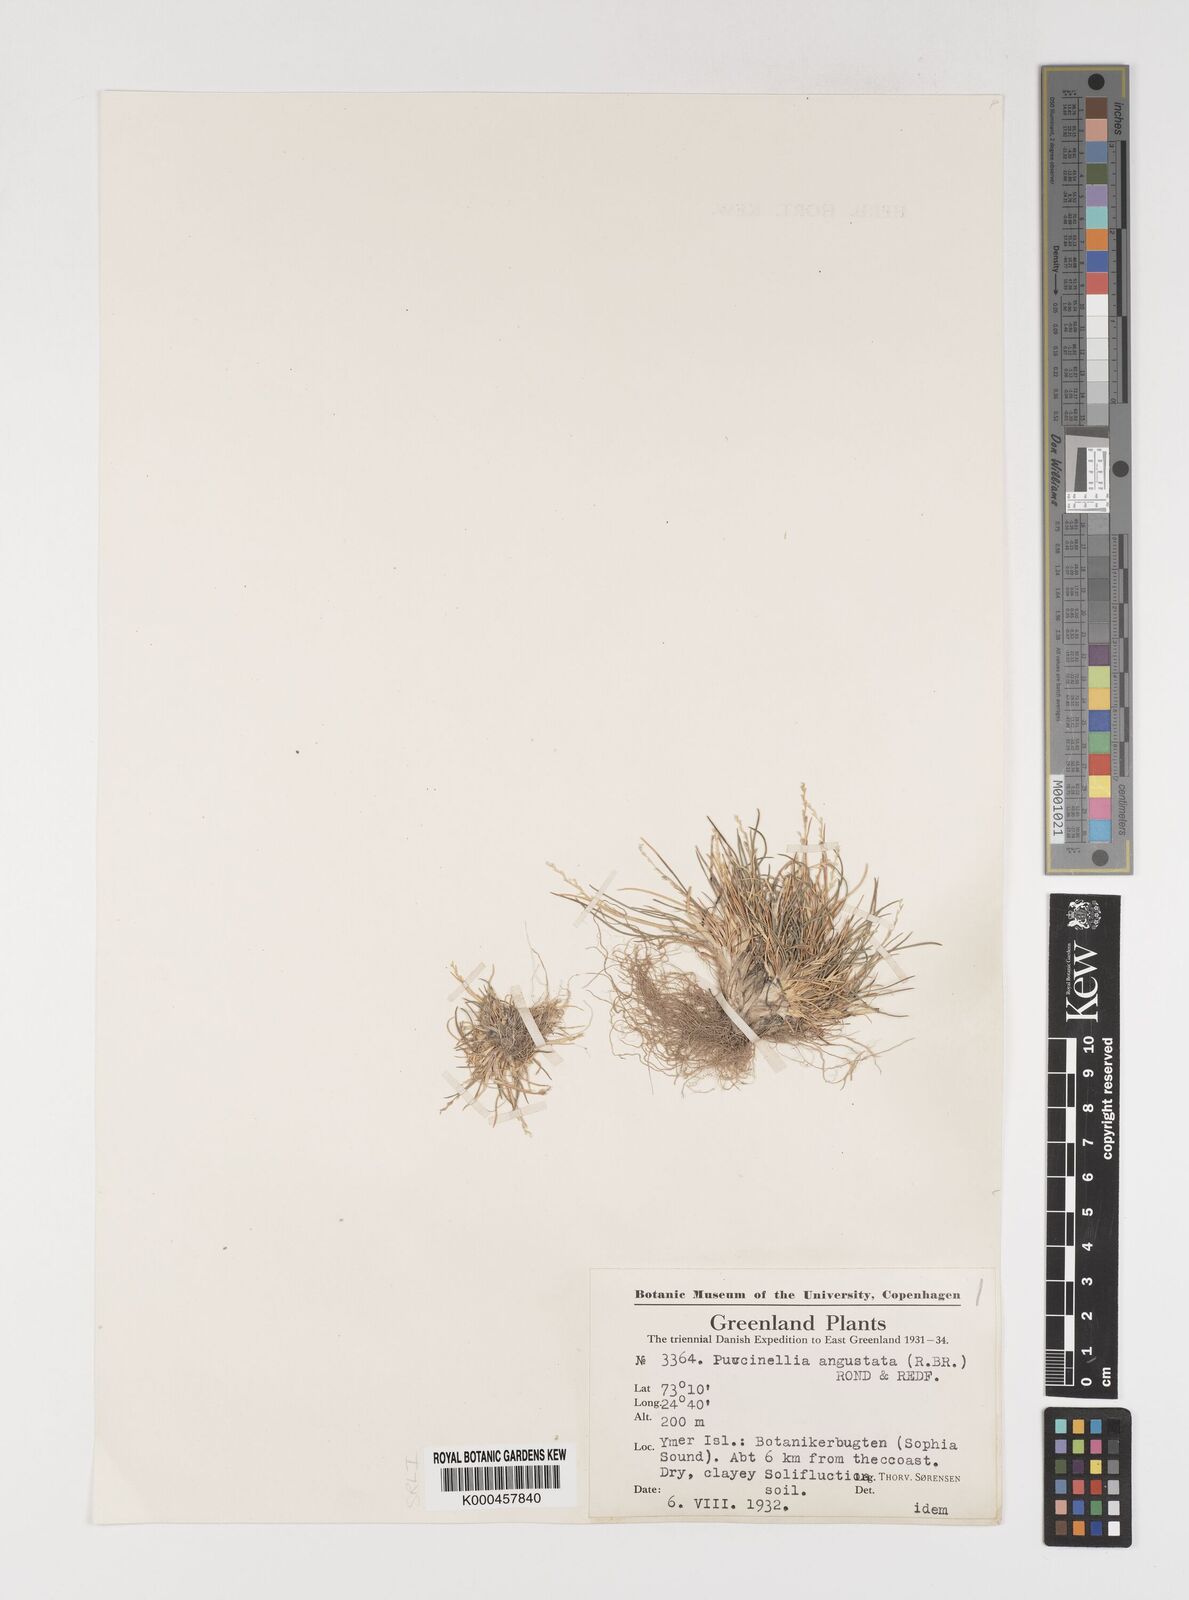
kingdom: Plantae
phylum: Tracheophyta
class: Liliopsida
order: Poales
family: Poaceae
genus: Puccinellia
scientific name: Puccinellia angustata
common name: Narrow alkaligrass
